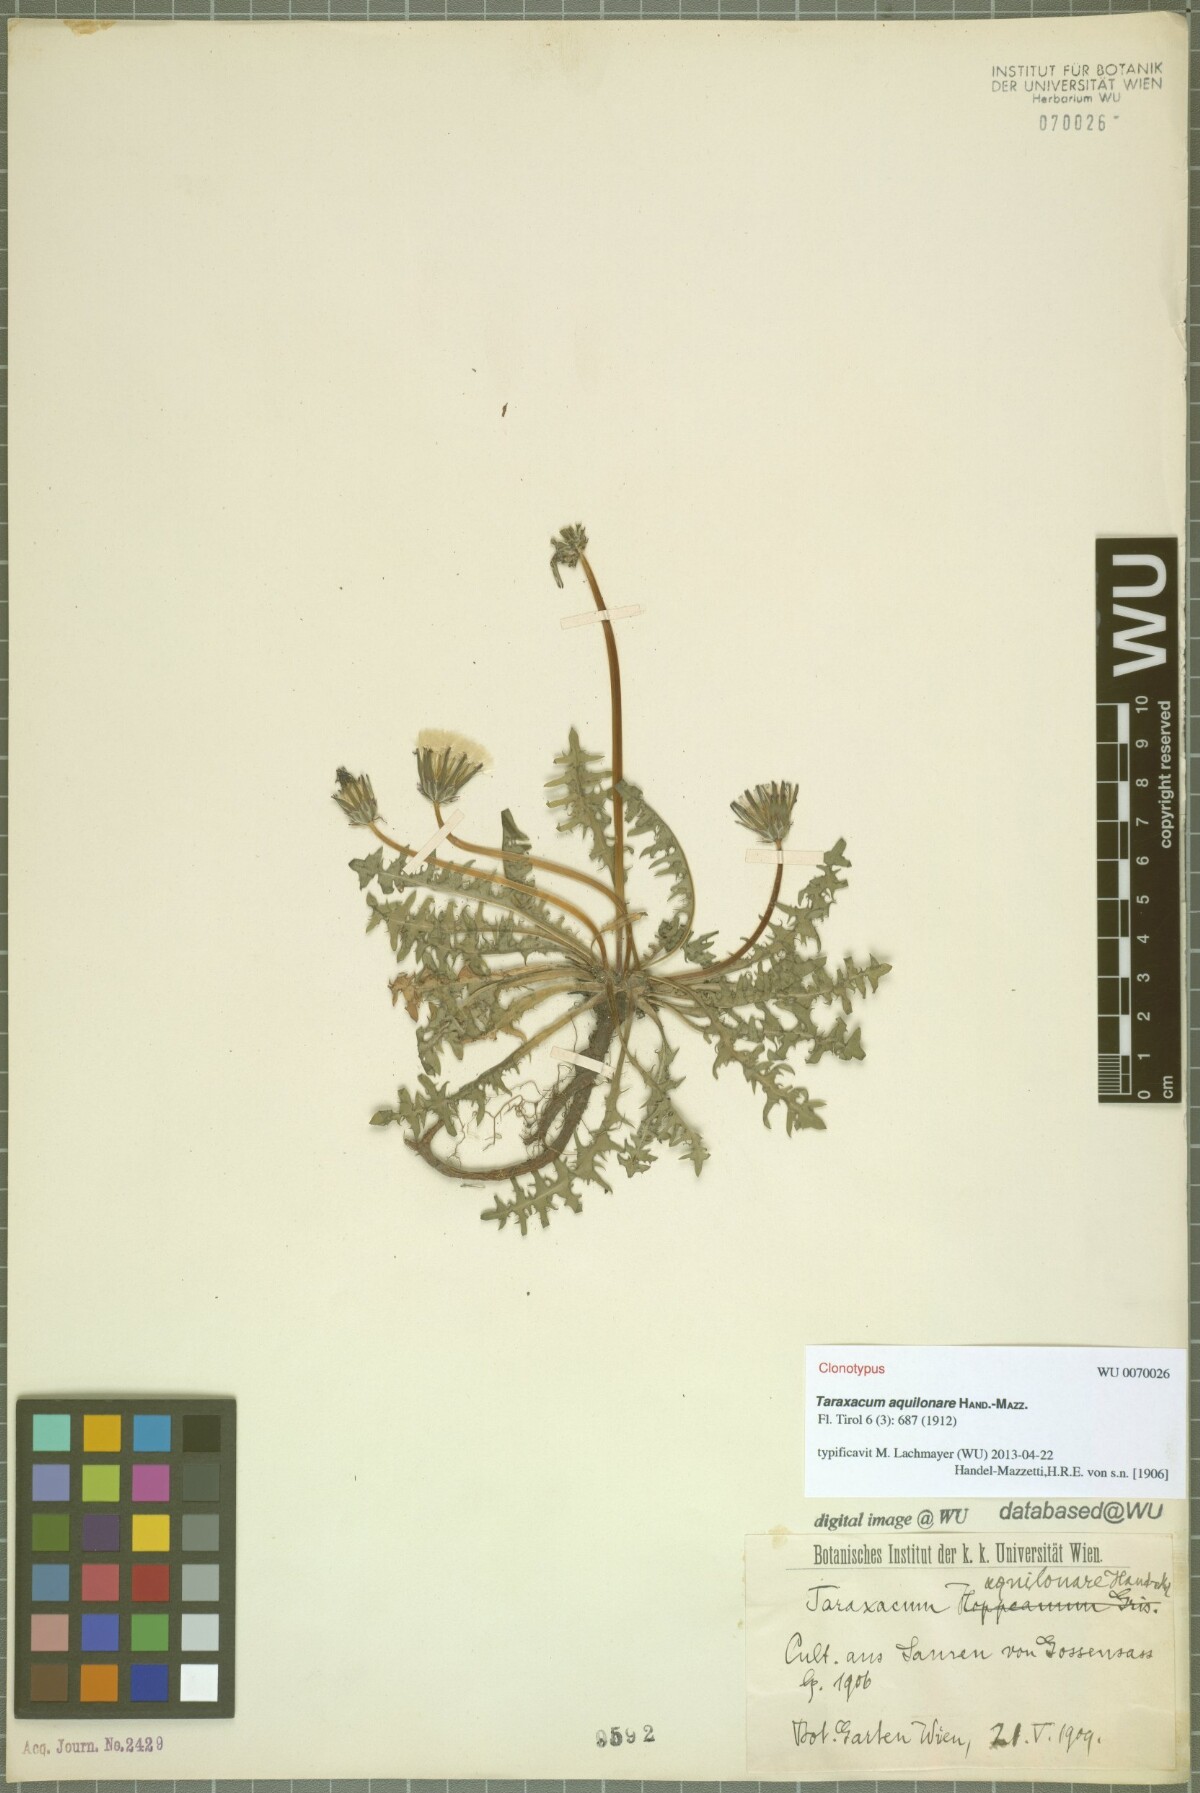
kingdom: Plantae
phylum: Tracheophyta
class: Magnoliopsida
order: Asterales
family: Asteraceae
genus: Taraxacum
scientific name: Taraxacum aquilonare
